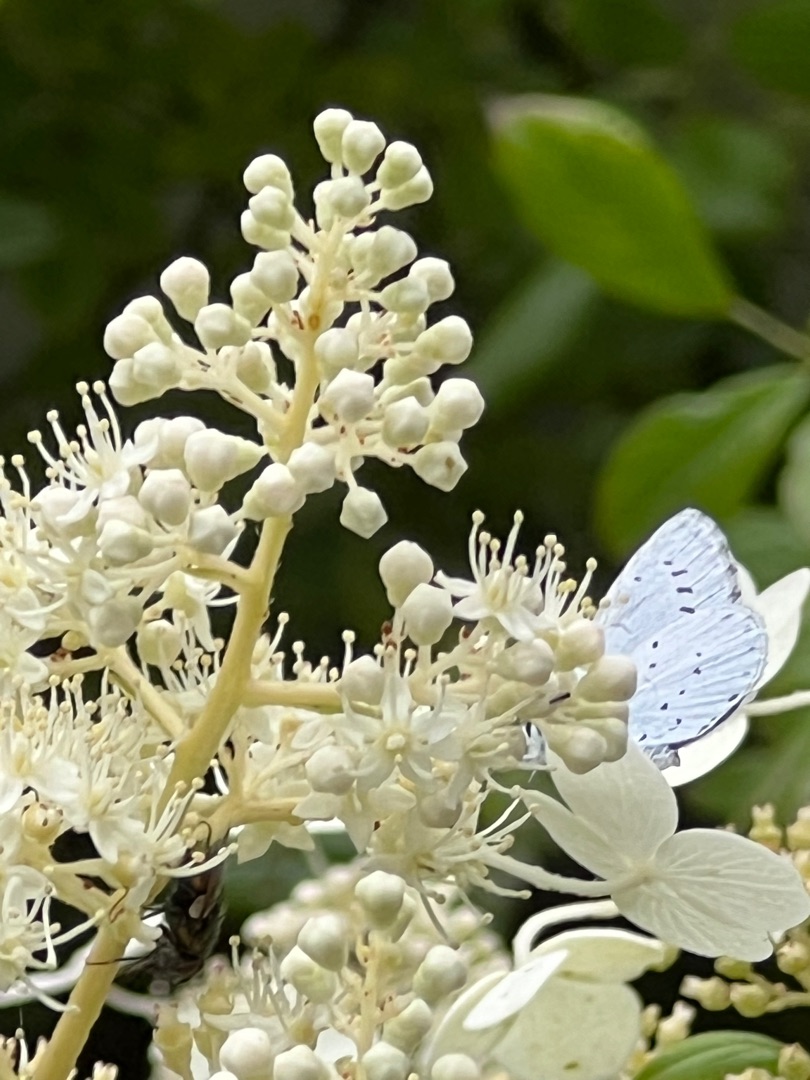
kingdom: Animalia
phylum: Arthropoda
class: Insecta
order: Lepidoptera
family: Lycaenidae
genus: Celastrina
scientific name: Celastrina argiolus
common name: Skovblåfugl
